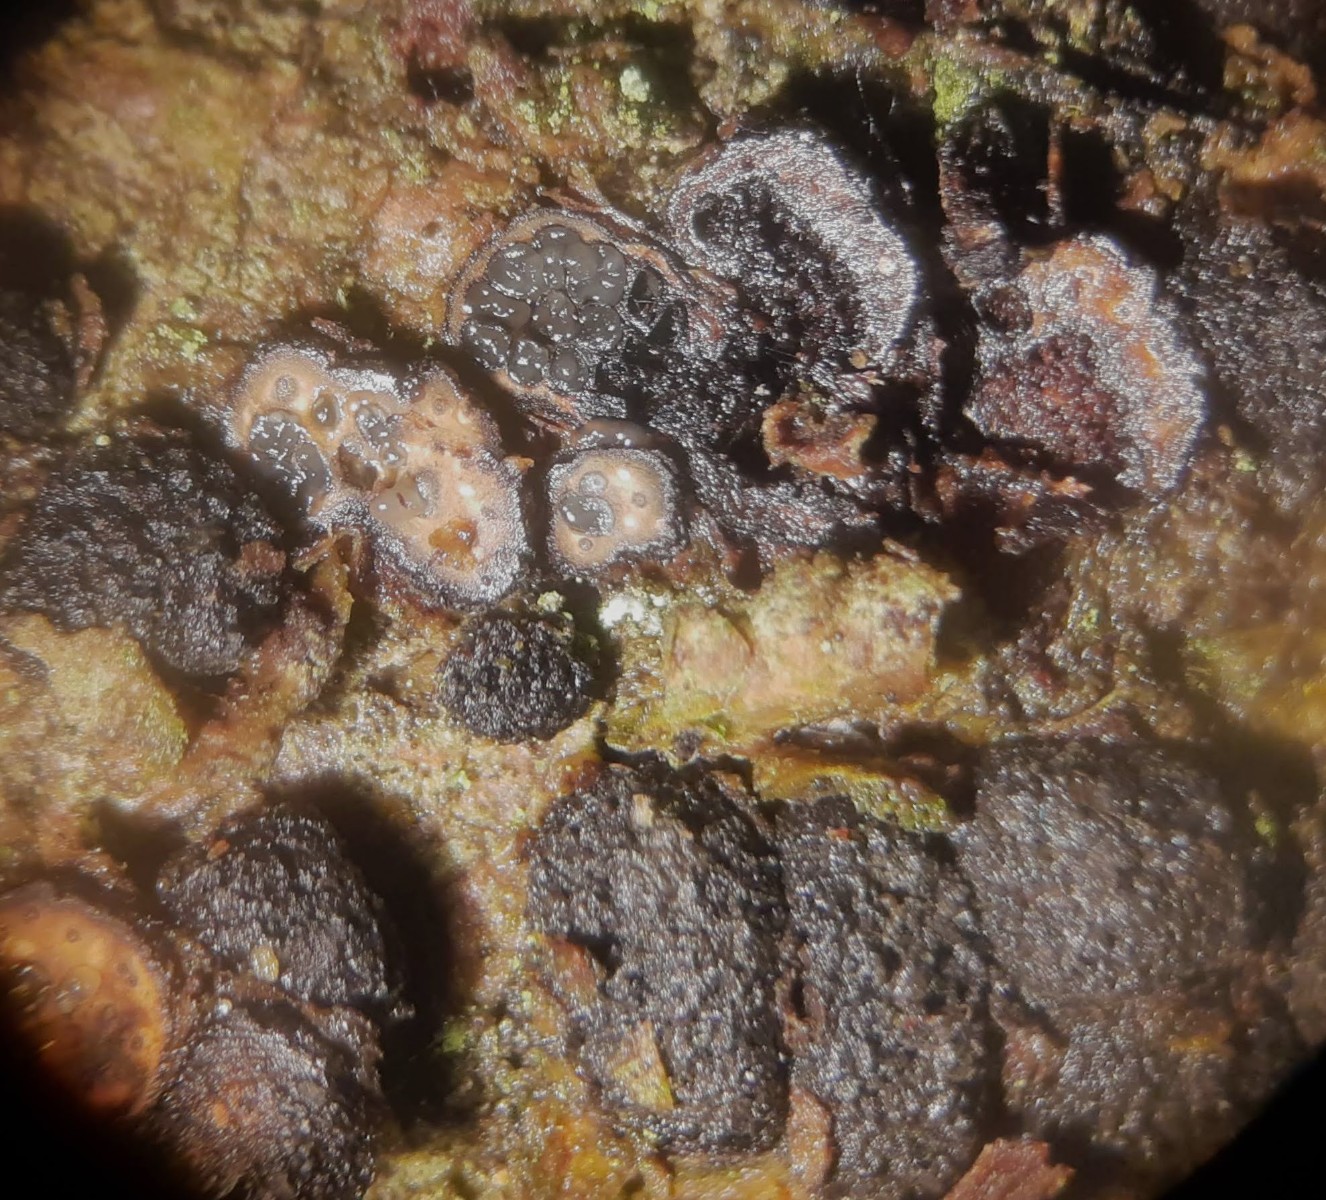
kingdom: Fungi
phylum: Ascomycota
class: Sordariomycetes
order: Xylariales
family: Diatrypaceae
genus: Diatrypella
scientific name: Diatrypella quercina
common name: ege-kulskorpe
